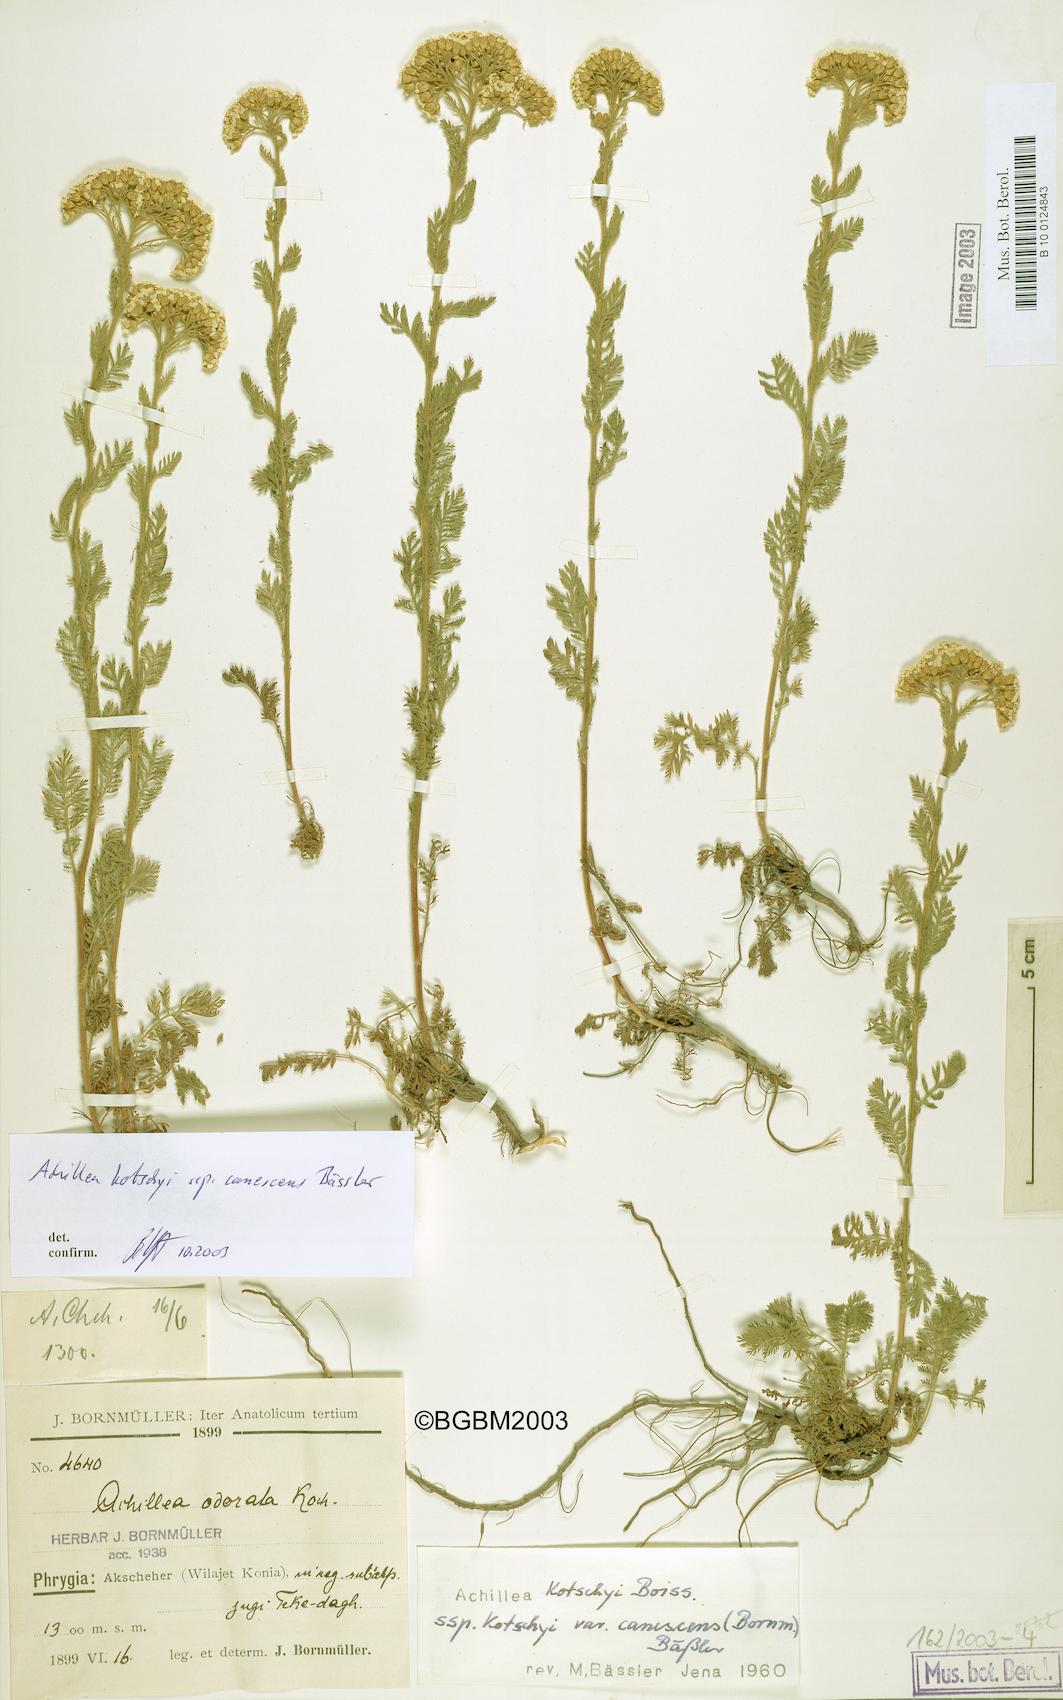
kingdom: Plantae
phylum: Tracheophyta
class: Magnoliopsida
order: Asterales
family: Asteraceae
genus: Achillea
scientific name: Achillea kotschyi
